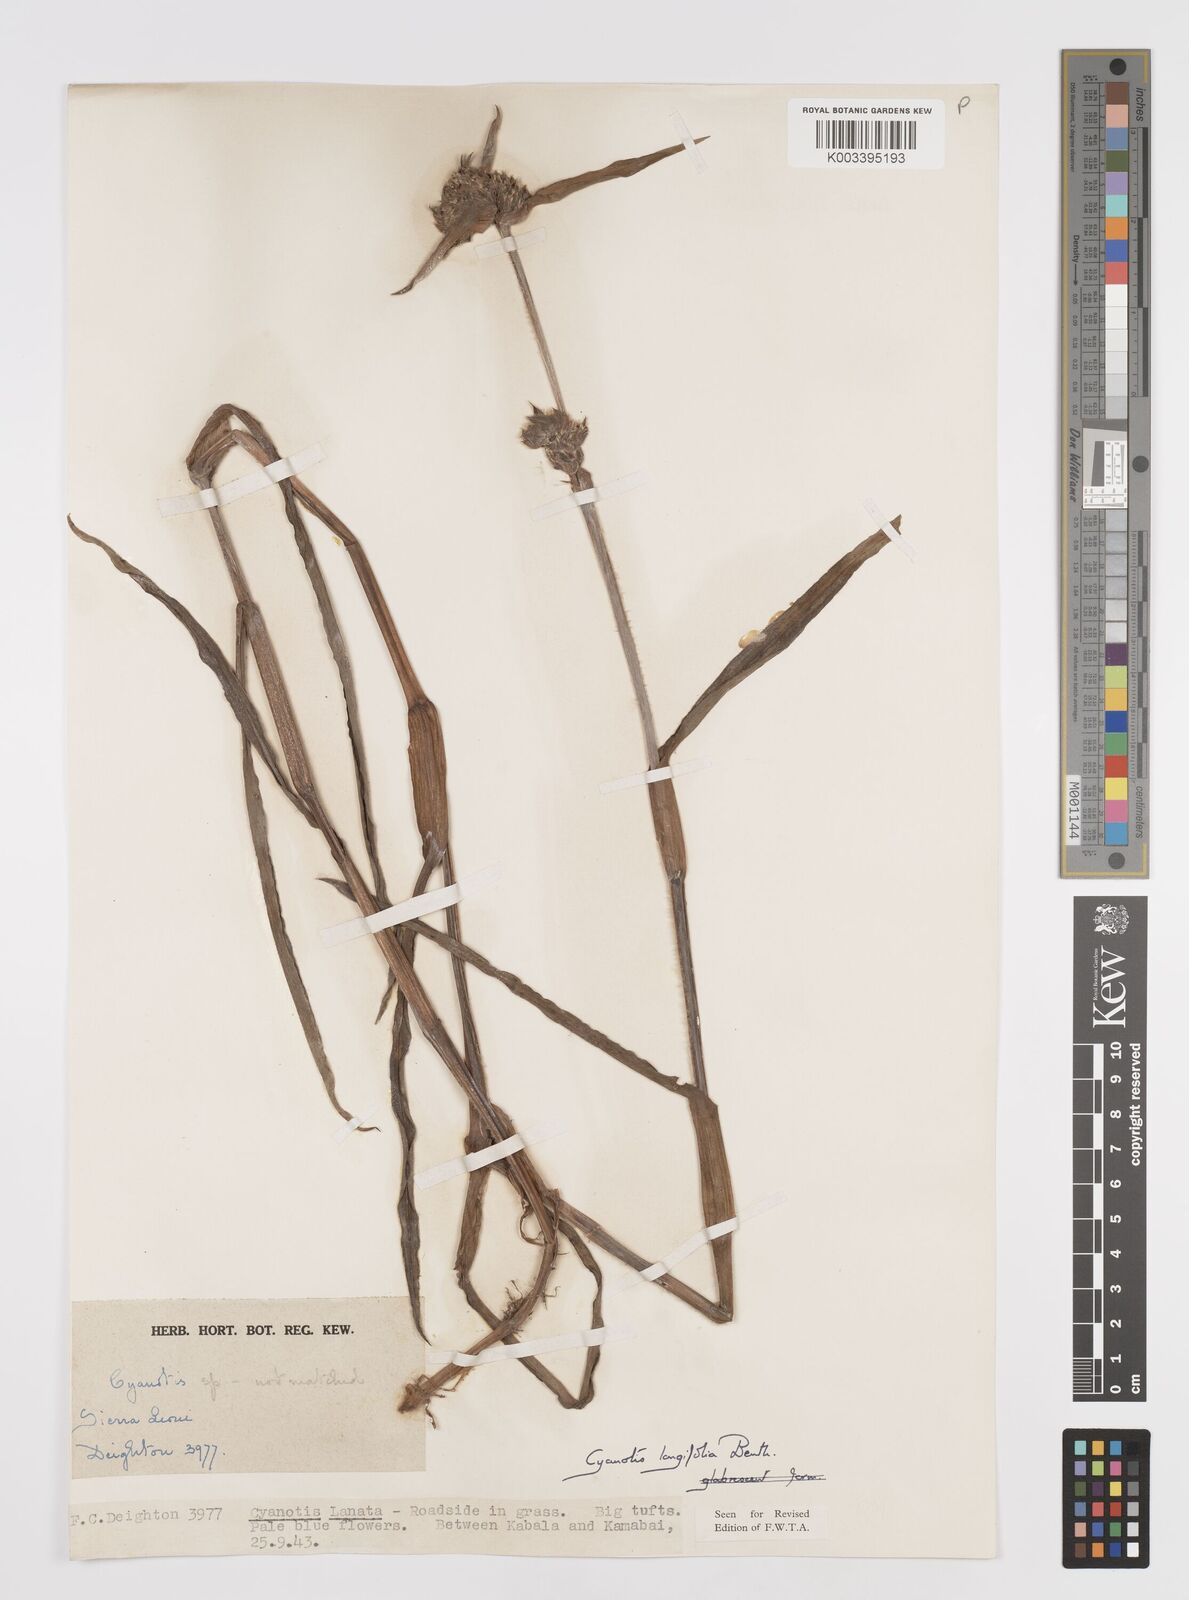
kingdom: Plantae
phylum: Tracheophyta
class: Liliopsida
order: Commelinales
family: Commelinaceae
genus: Cyanotis
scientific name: Cyanotis
